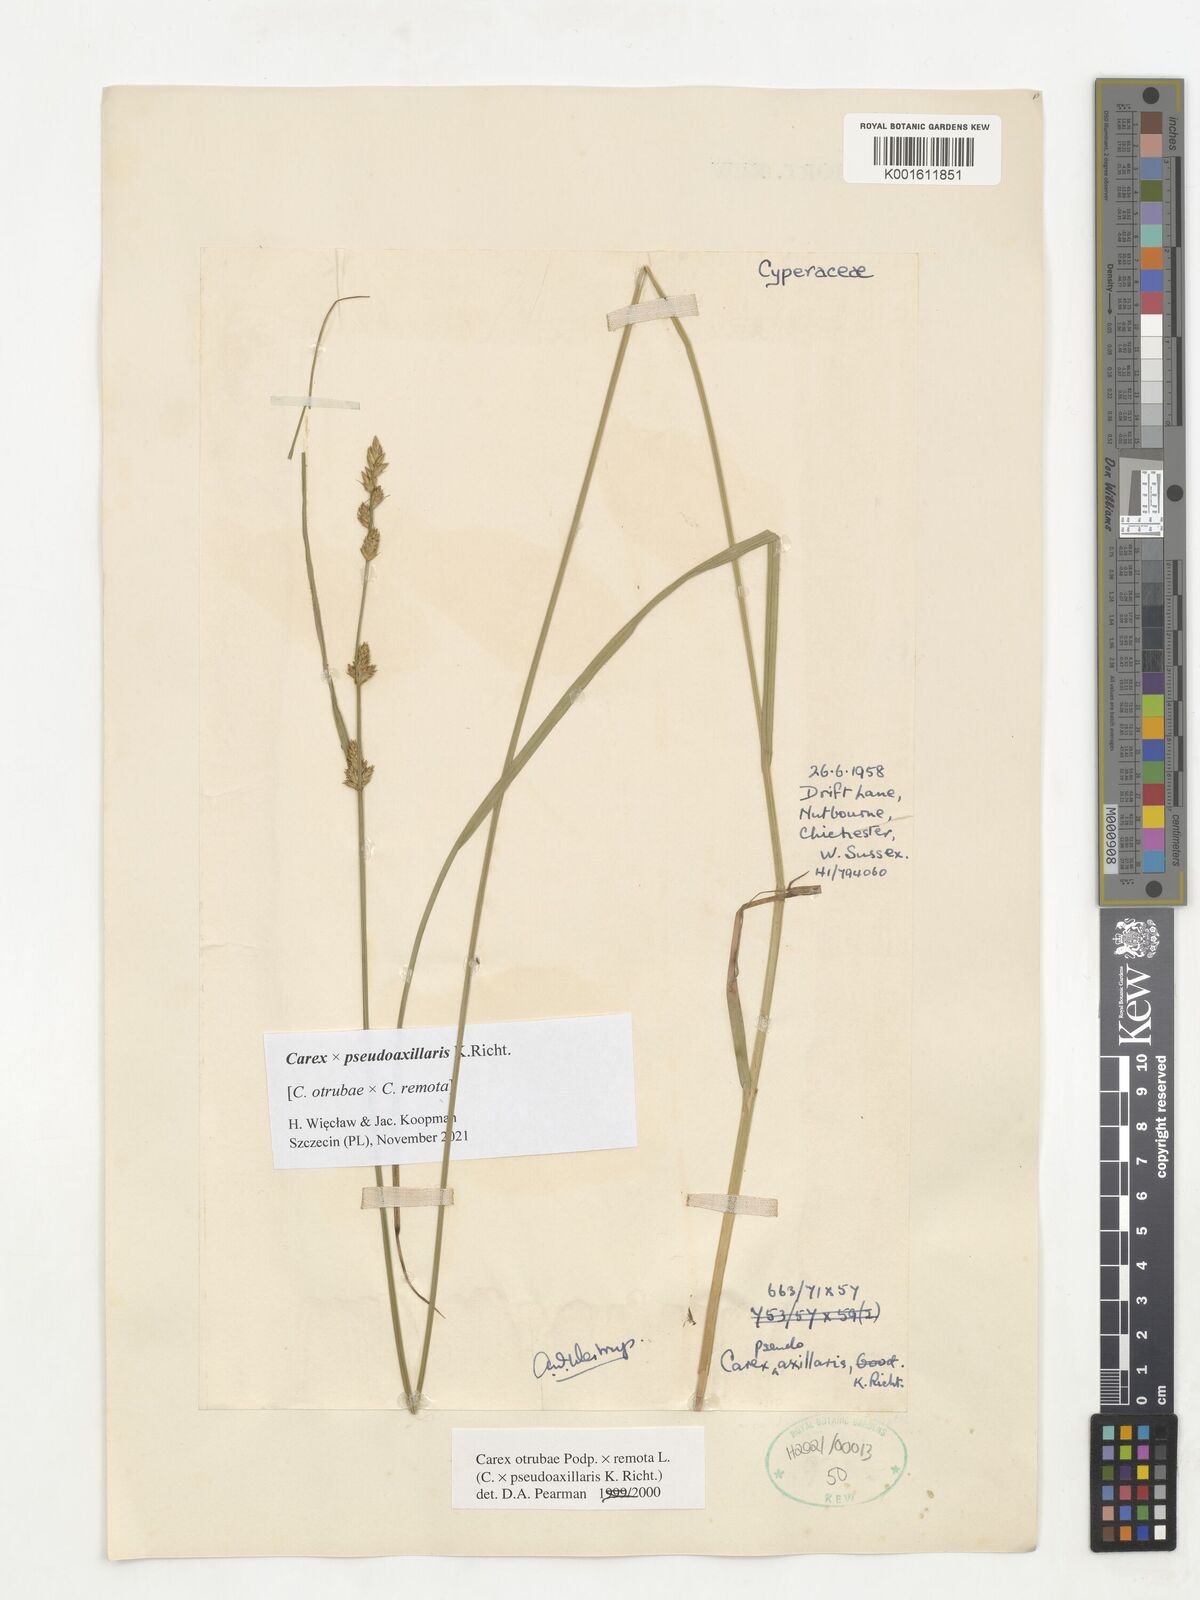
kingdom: Plantae
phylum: Tracheophyta
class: Liliopsida
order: Poales
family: Cyperaceae
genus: Carex
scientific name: Carex pseudoaxillaris
